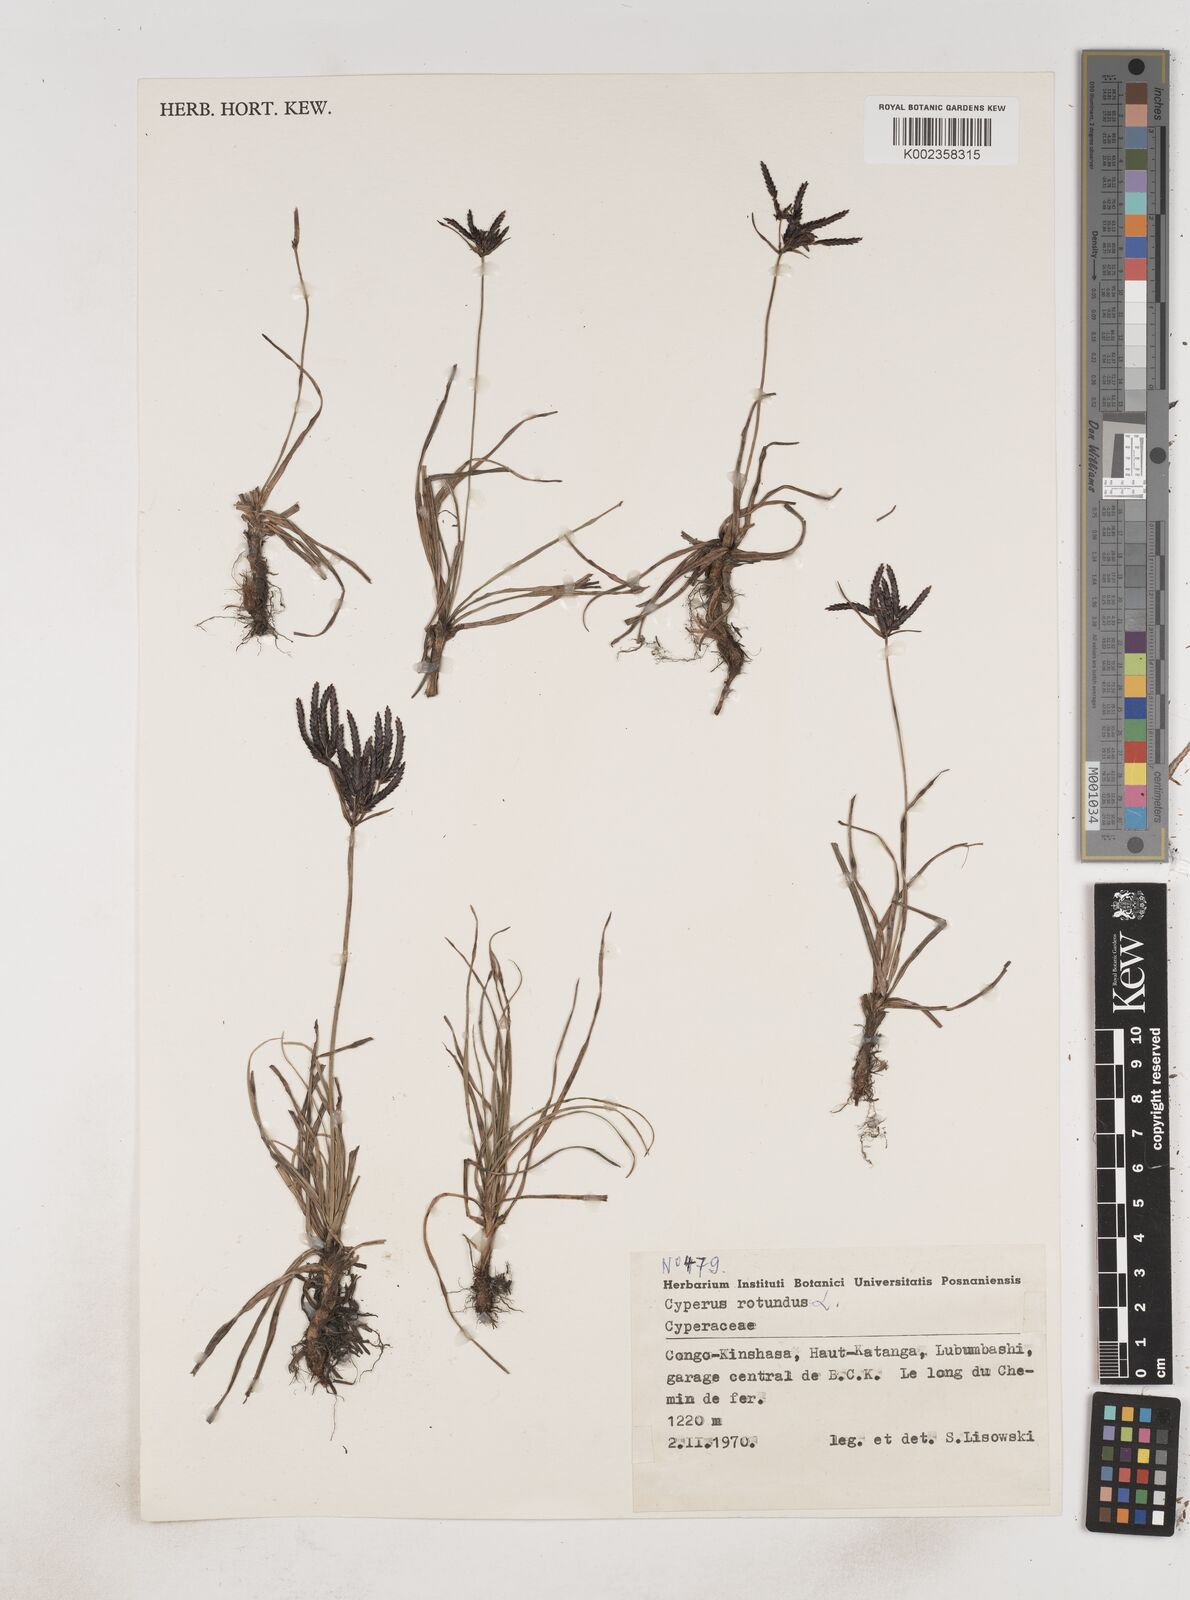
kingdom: Plantae
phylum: Tracheophyta
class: Liliopsida
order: Poales
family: Cyperaceae
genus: Cyperus
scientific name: Cyperus rotundus
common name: Nutgrass
